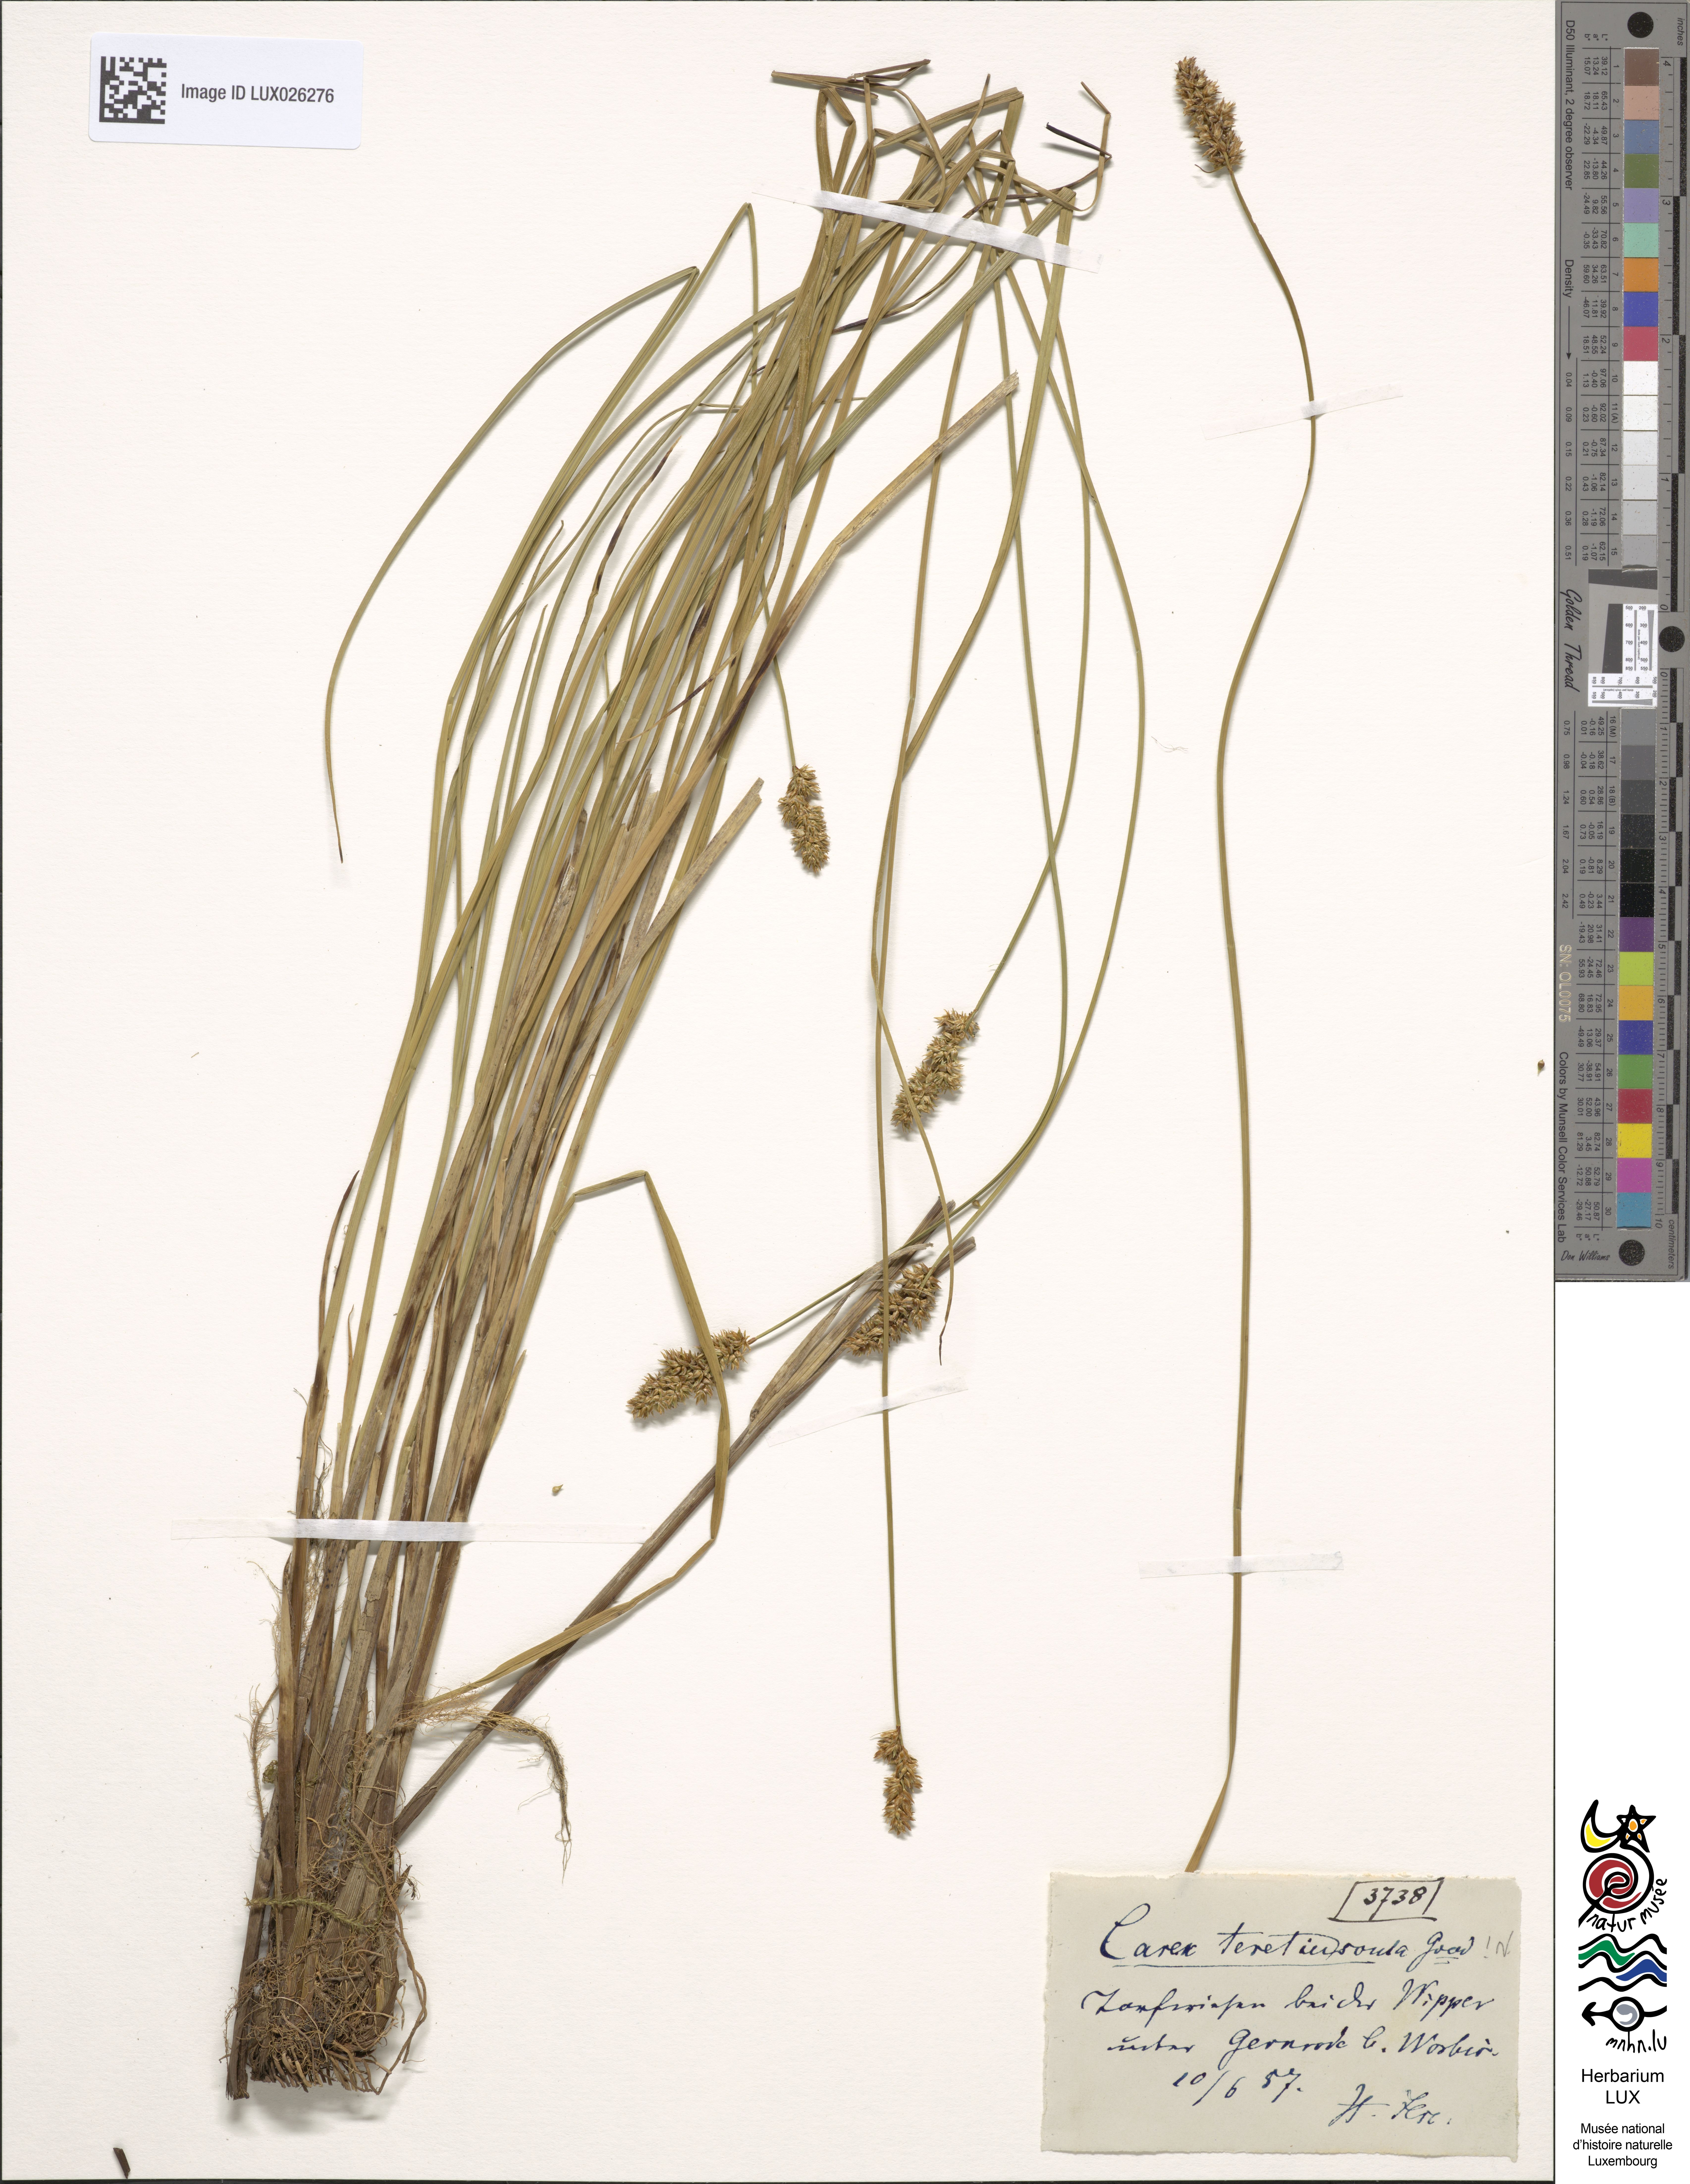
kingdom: Plantae
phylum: Tracheophyta
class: Liliopsida
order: Poales
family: Cyperaceae
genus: Carex
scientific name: Carex diandra
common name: Lesser tussock-sedge
